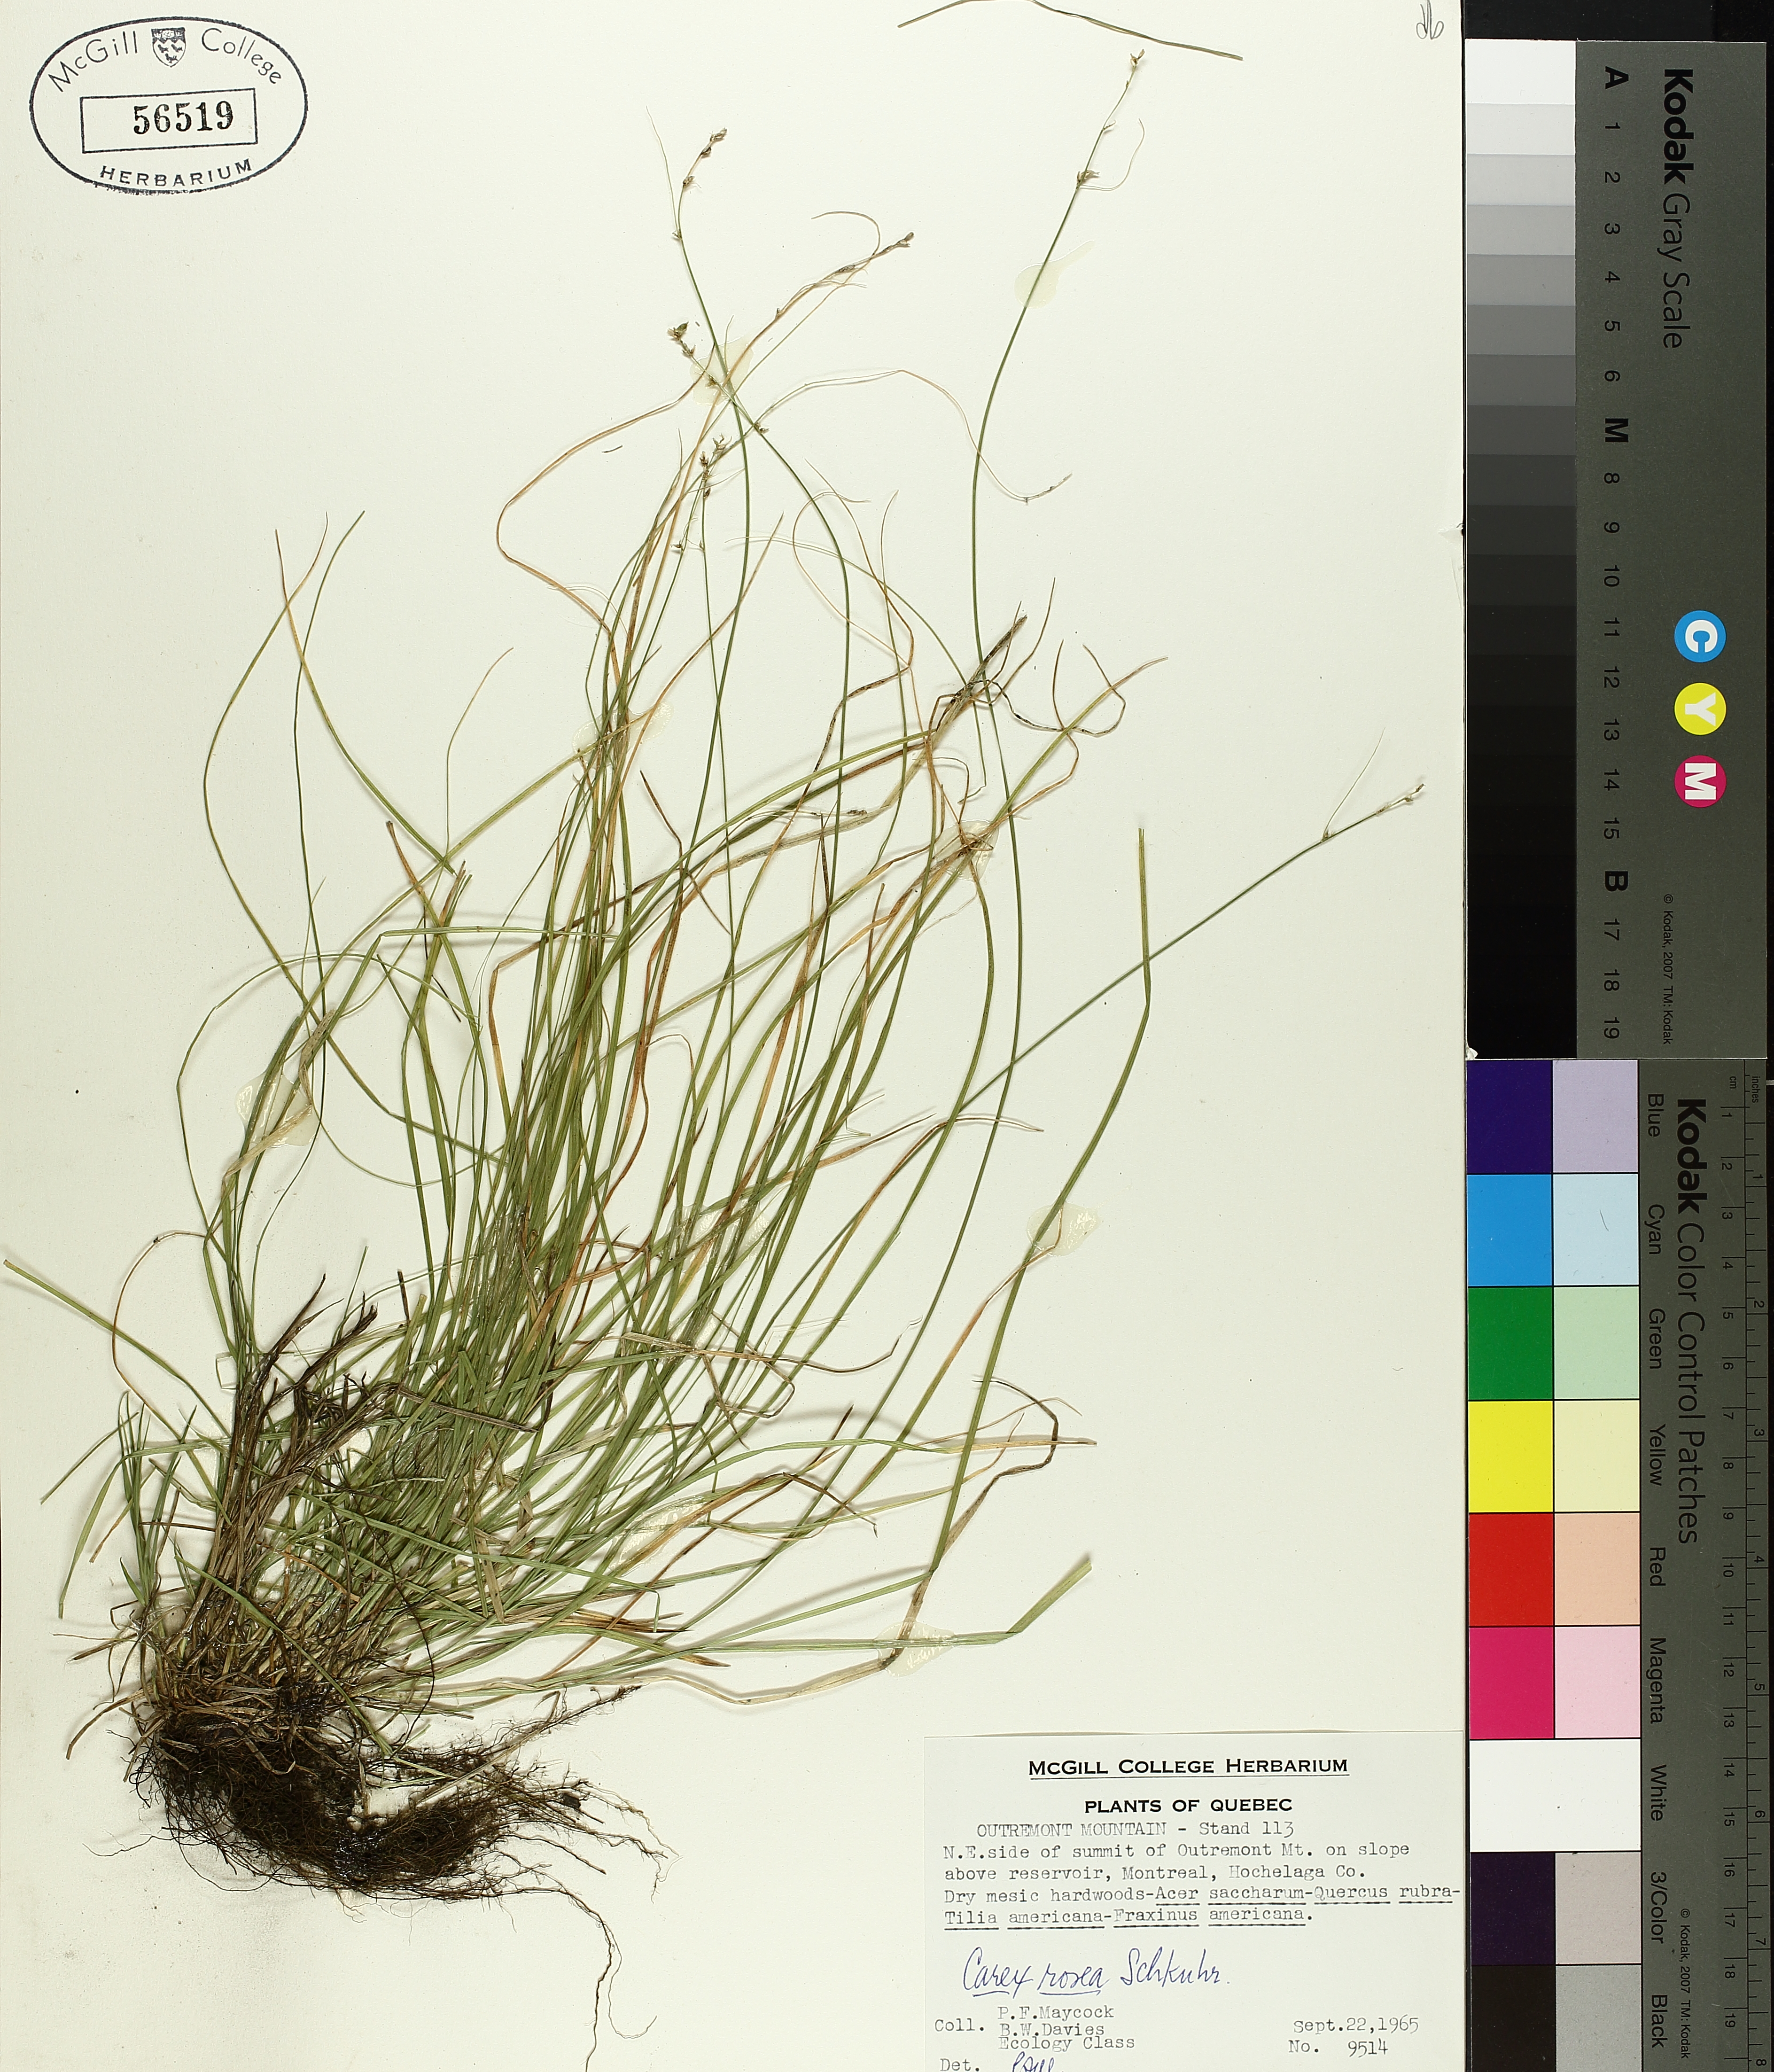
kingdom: Plantae
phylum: Tracheophyta
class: Liliopsida
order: Poales
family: Cyperaceae
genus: Carex
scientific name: Carex rosea
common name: Curly-styled wood sedge
